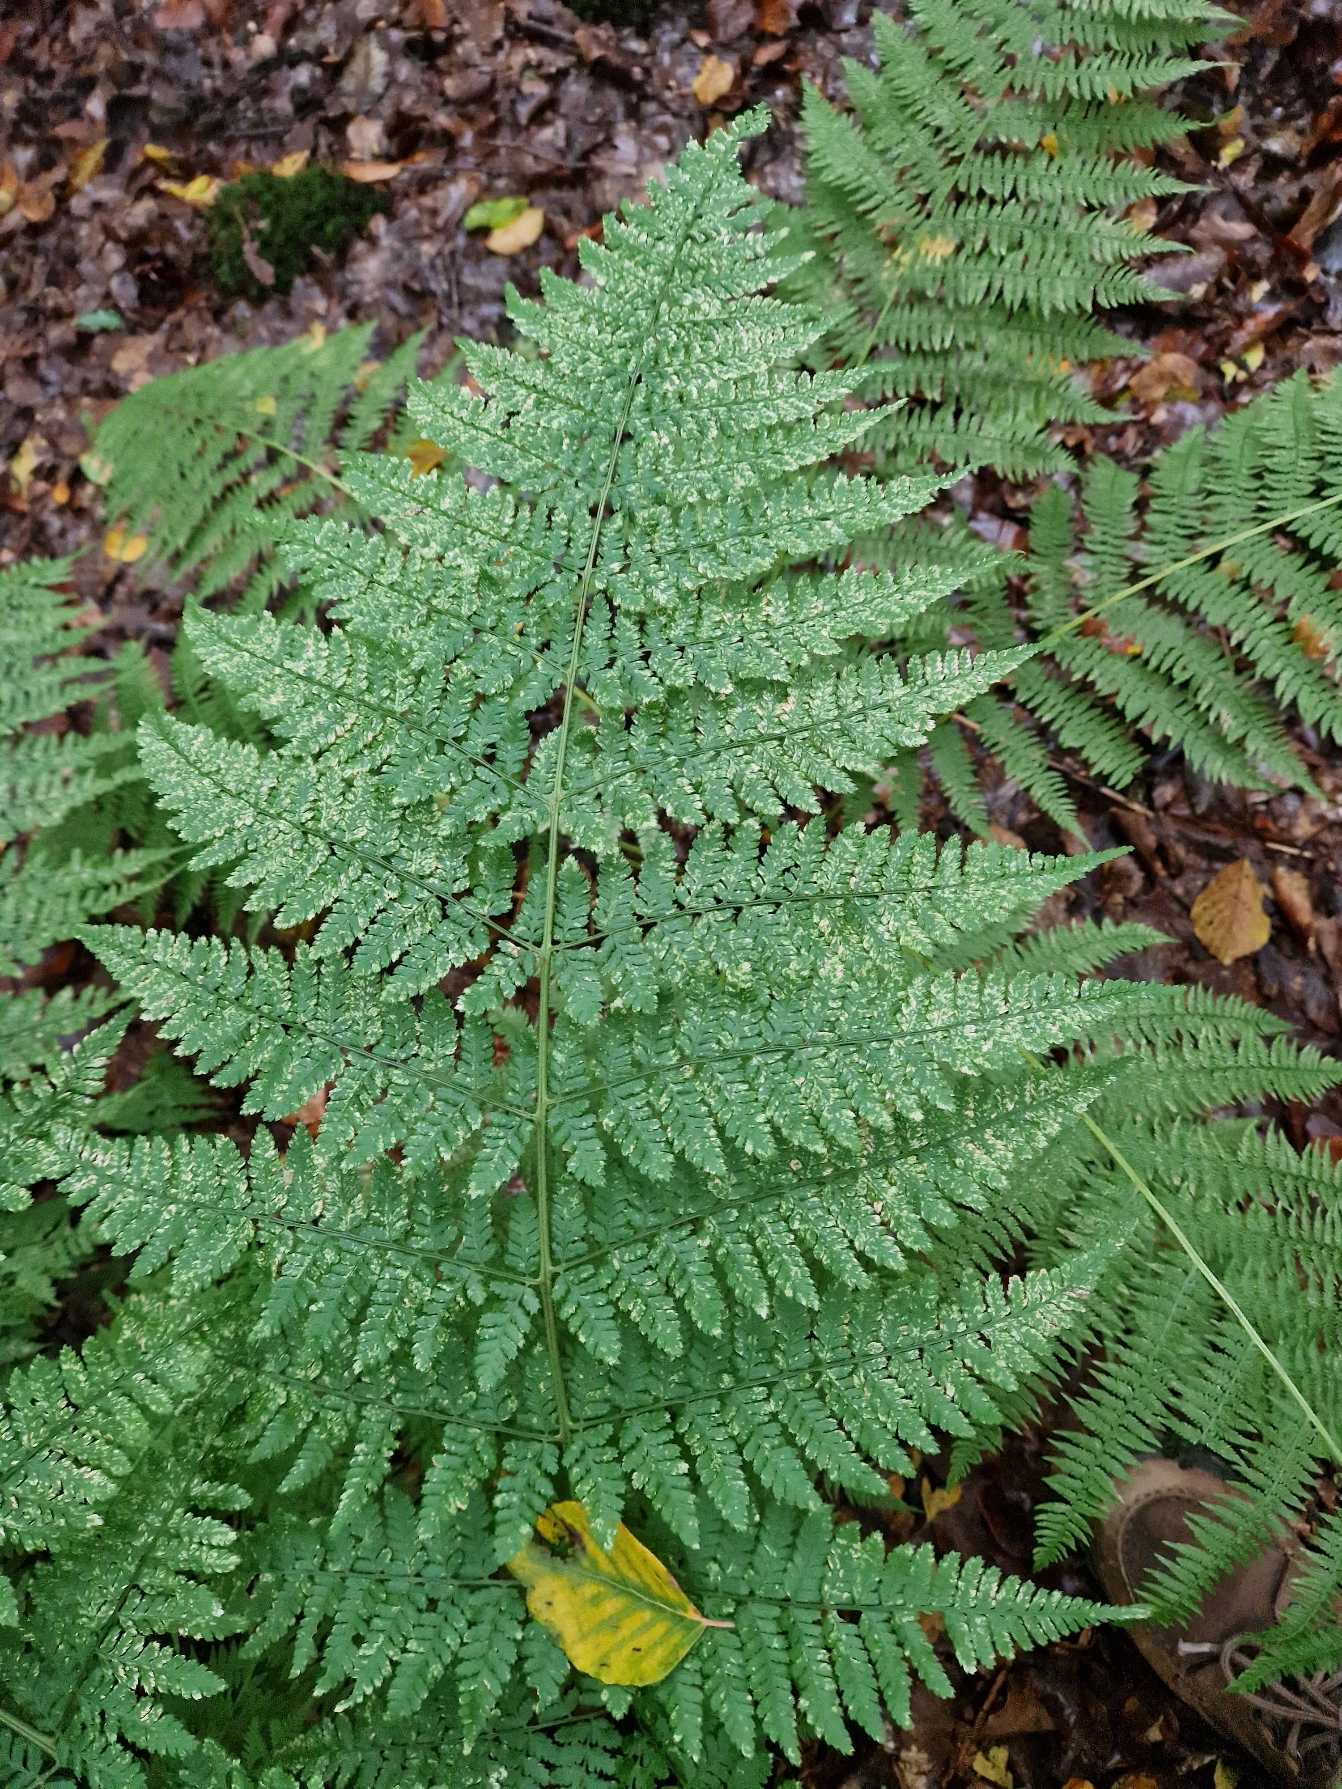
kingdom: Plantae
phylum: Tracheophyta
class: Polypodiopsida
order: Polypodiales
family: Dryopteridaceae
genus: Dryopteris
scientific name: Dryopteris dilatata
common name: Bredbladet mangeløv
